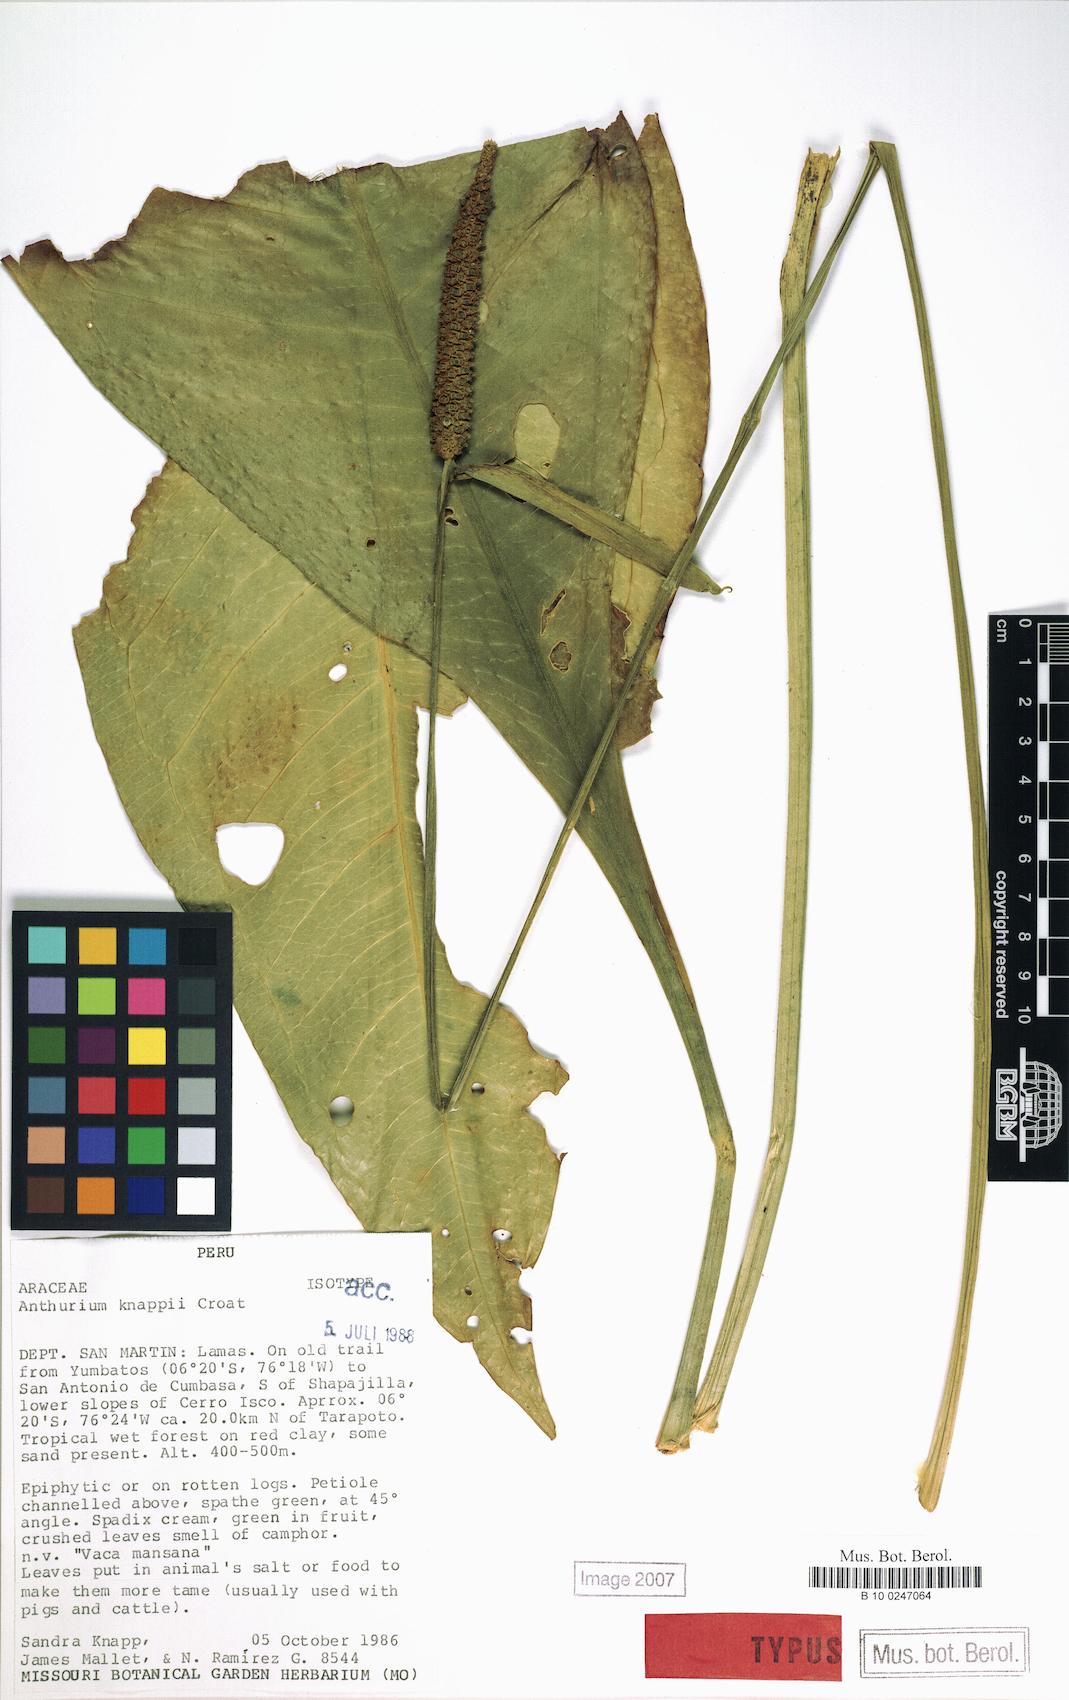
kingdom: Plantae
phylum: Tracheophyta
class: Liliopsida
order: Alismatales
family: Araceae
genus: Anthurium
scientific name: Anthurium knappiae
